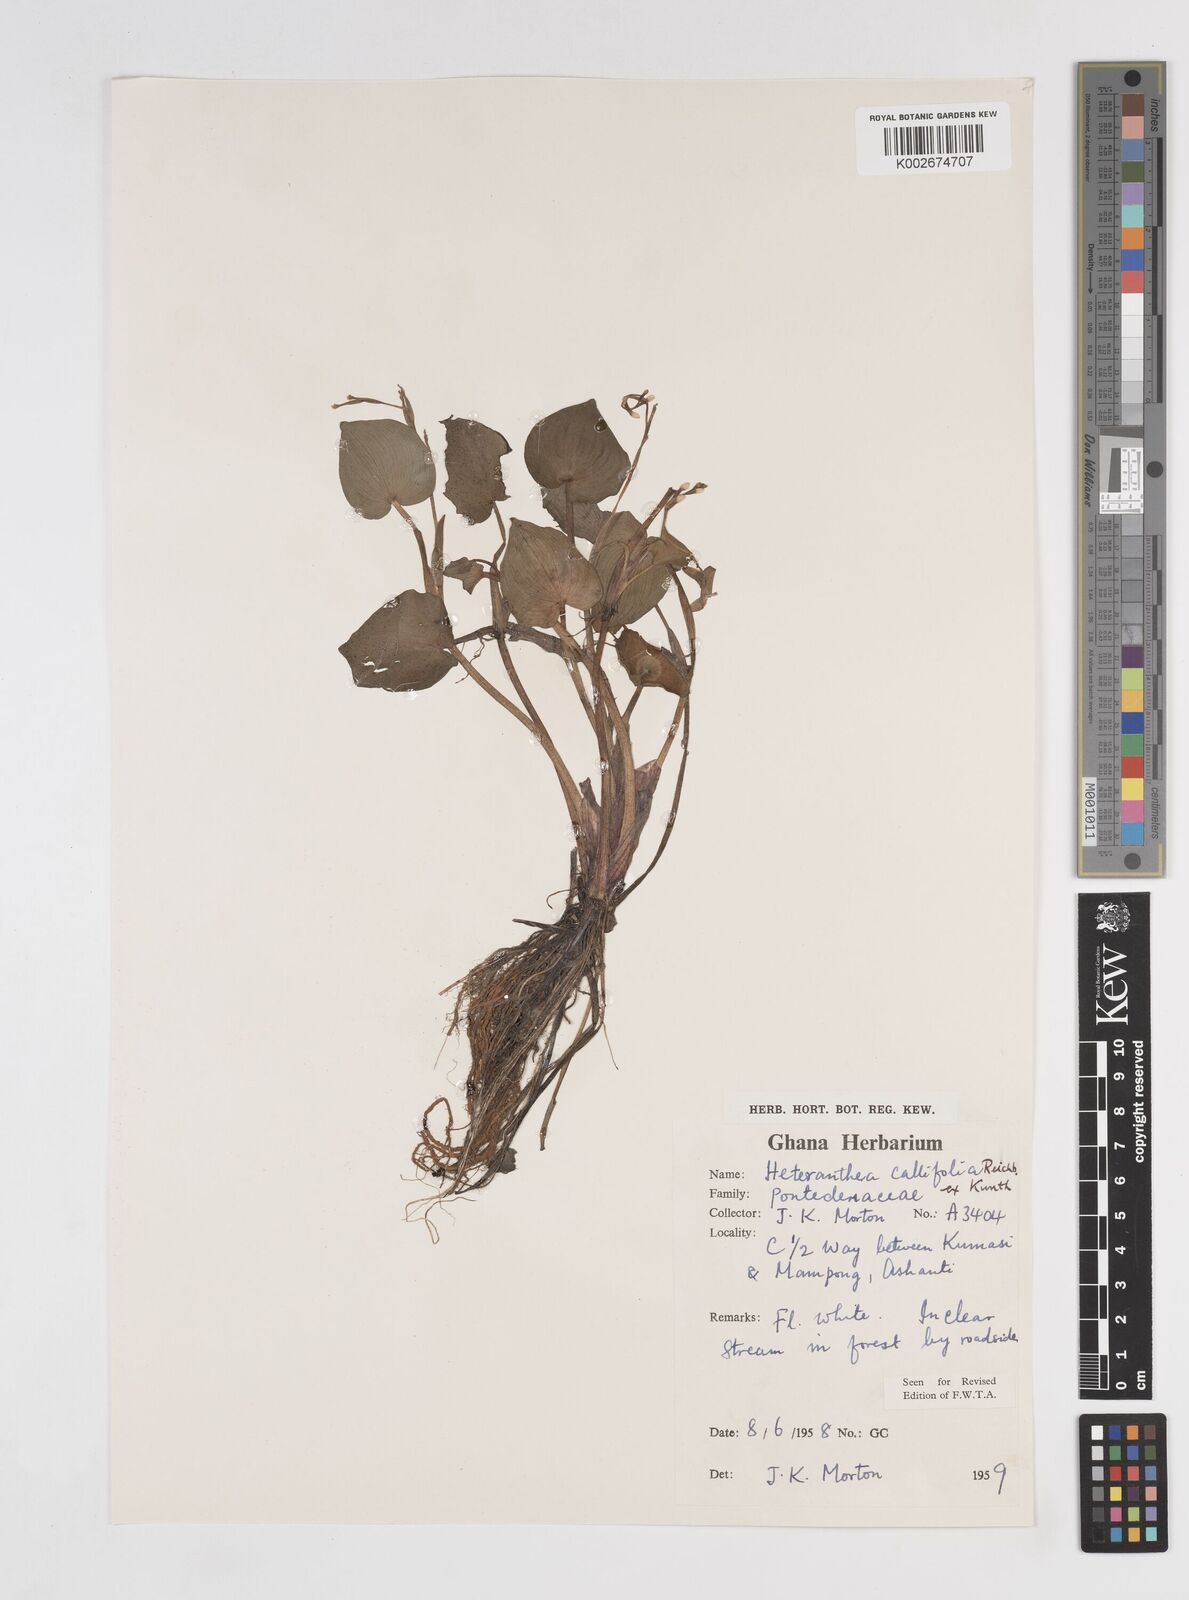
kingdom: Plantae
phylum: Tracheophyta
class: Liliopsida
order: Commelinales
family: Pontederiaceae
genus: Heteranthera
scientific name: Heteranthera callifolia
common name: Mud plantain
